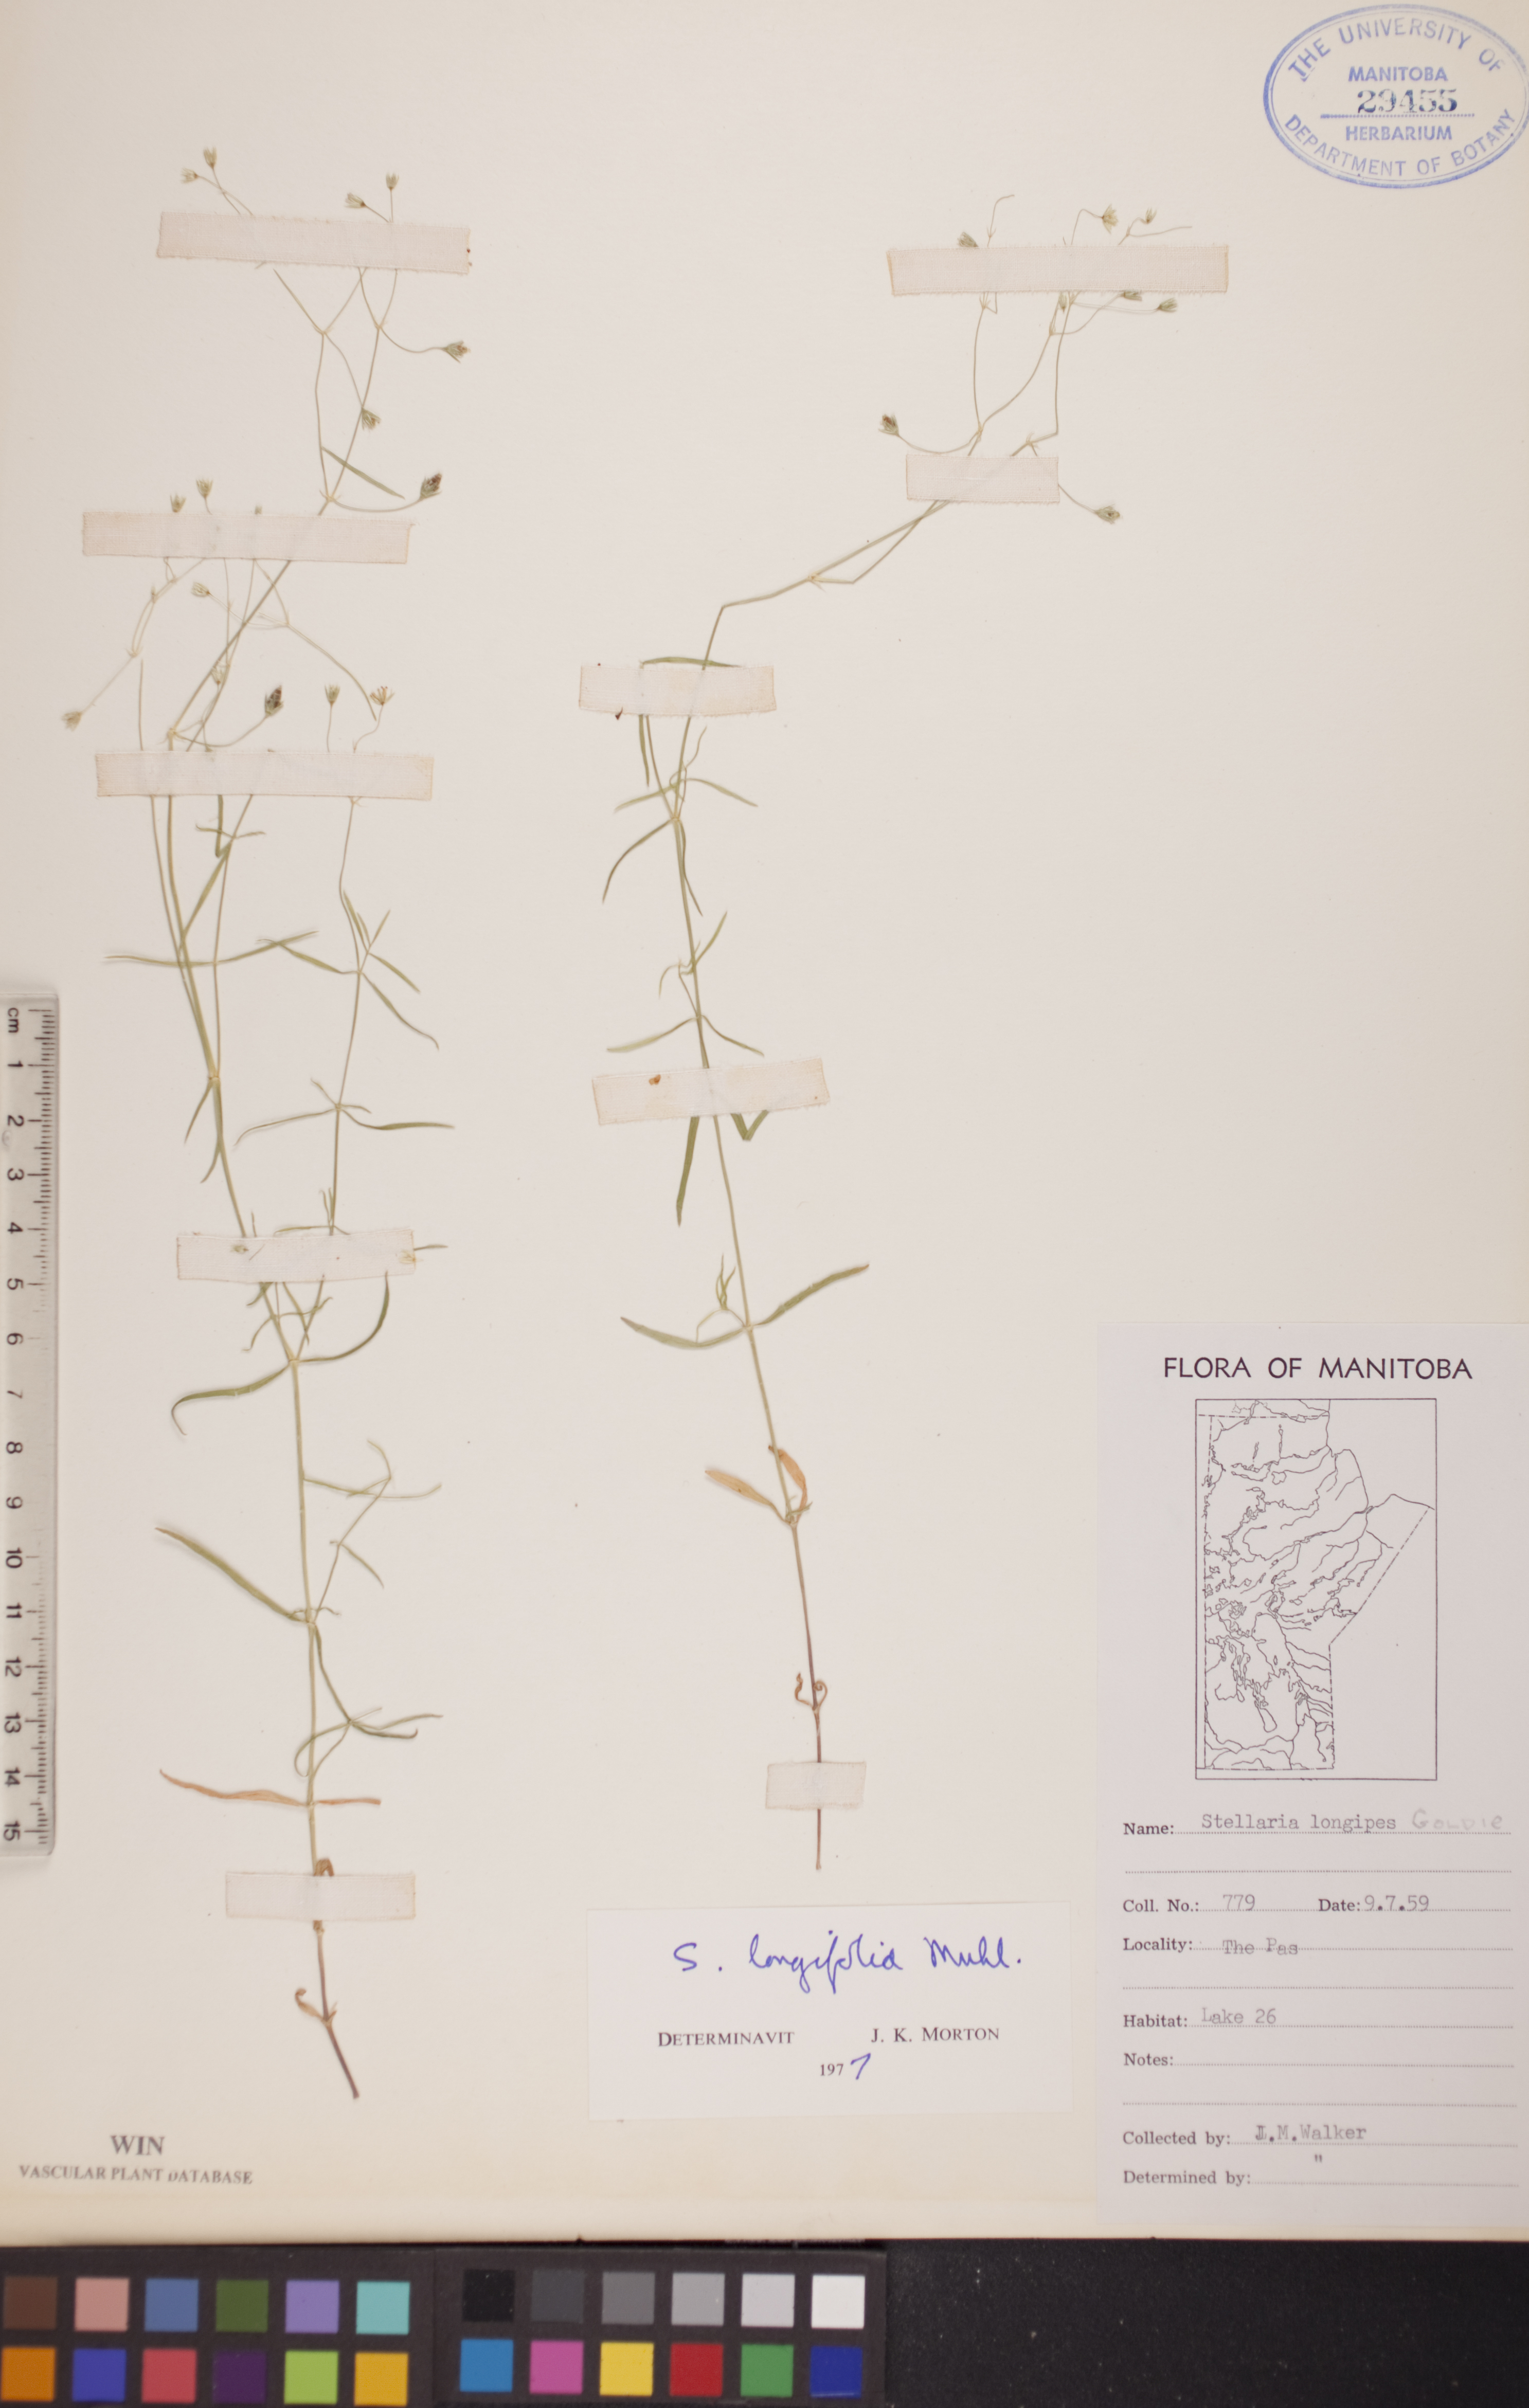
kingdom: Plantae
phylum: Tracheophyta
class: Magnoliopsida
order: Caryophyllales
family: Caryophyllaceae
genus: Stellaria
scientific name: Stellaria longifolia
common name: Long-leaved chickweed
